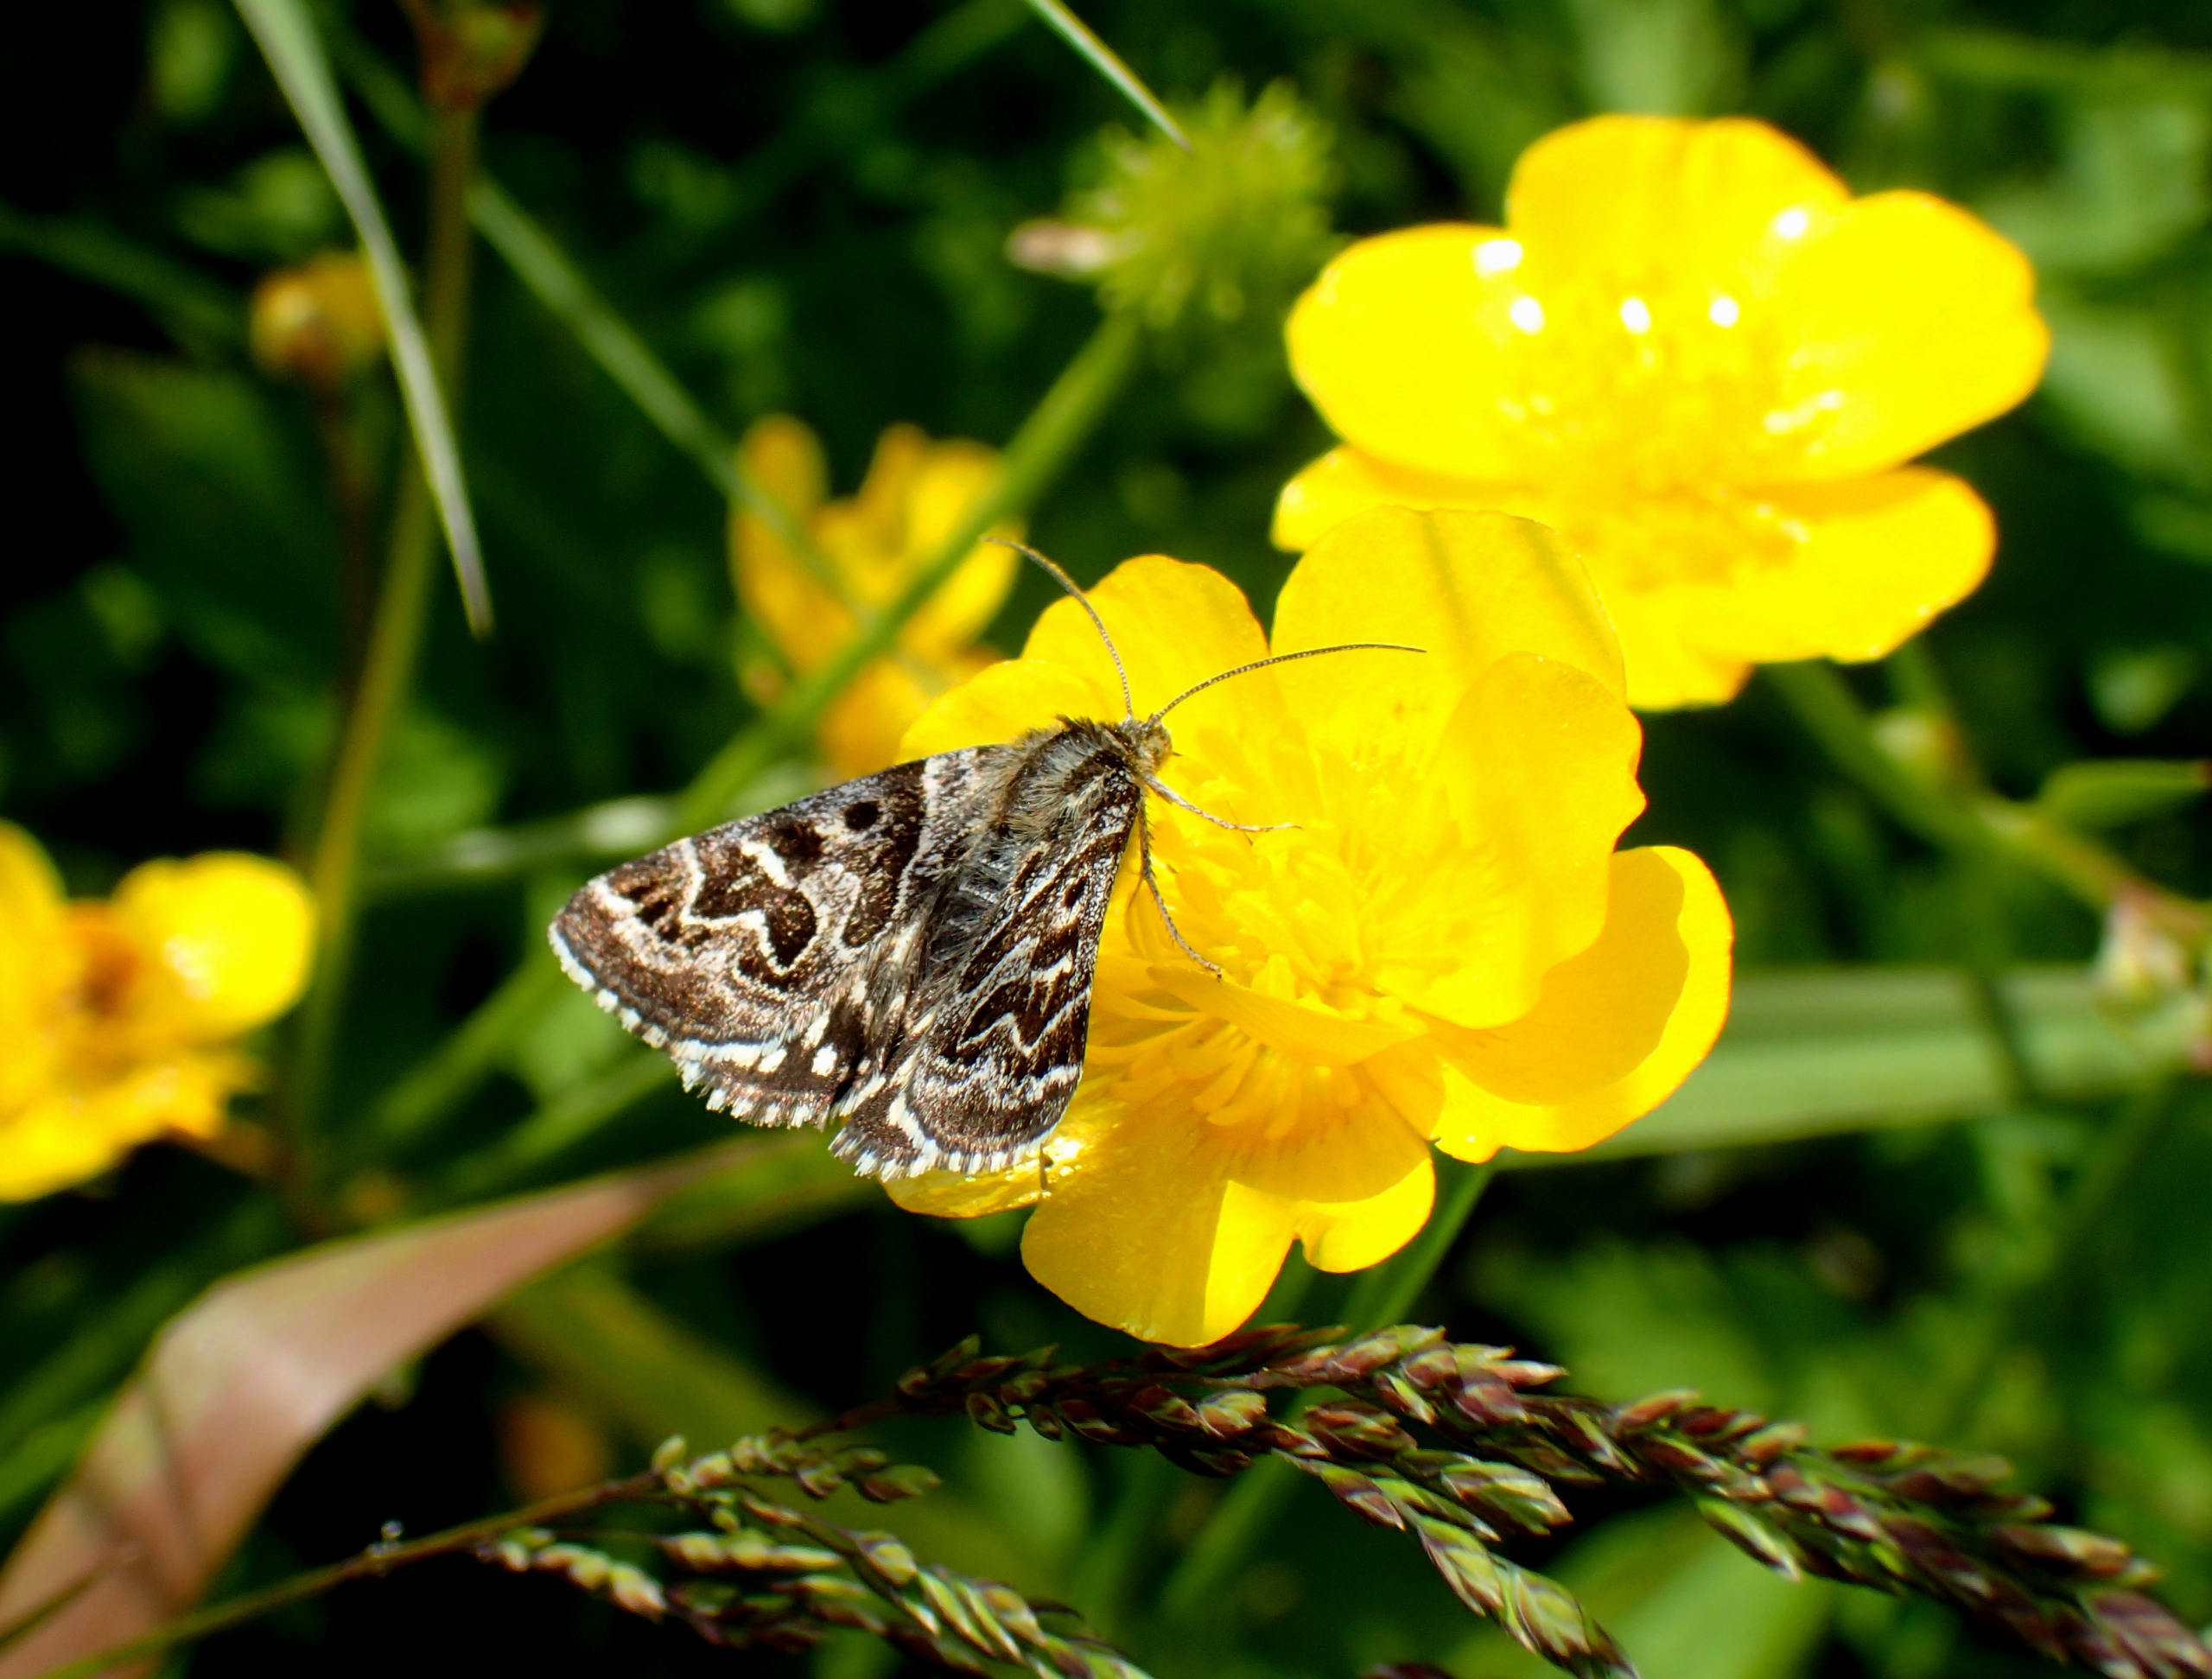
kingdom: Animalia
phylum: Arthropoda
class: Insecta
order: Lepidoptera
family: Erebidae
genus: Callistege
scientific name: Callistege mi
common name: Marmoreret kløverugle
